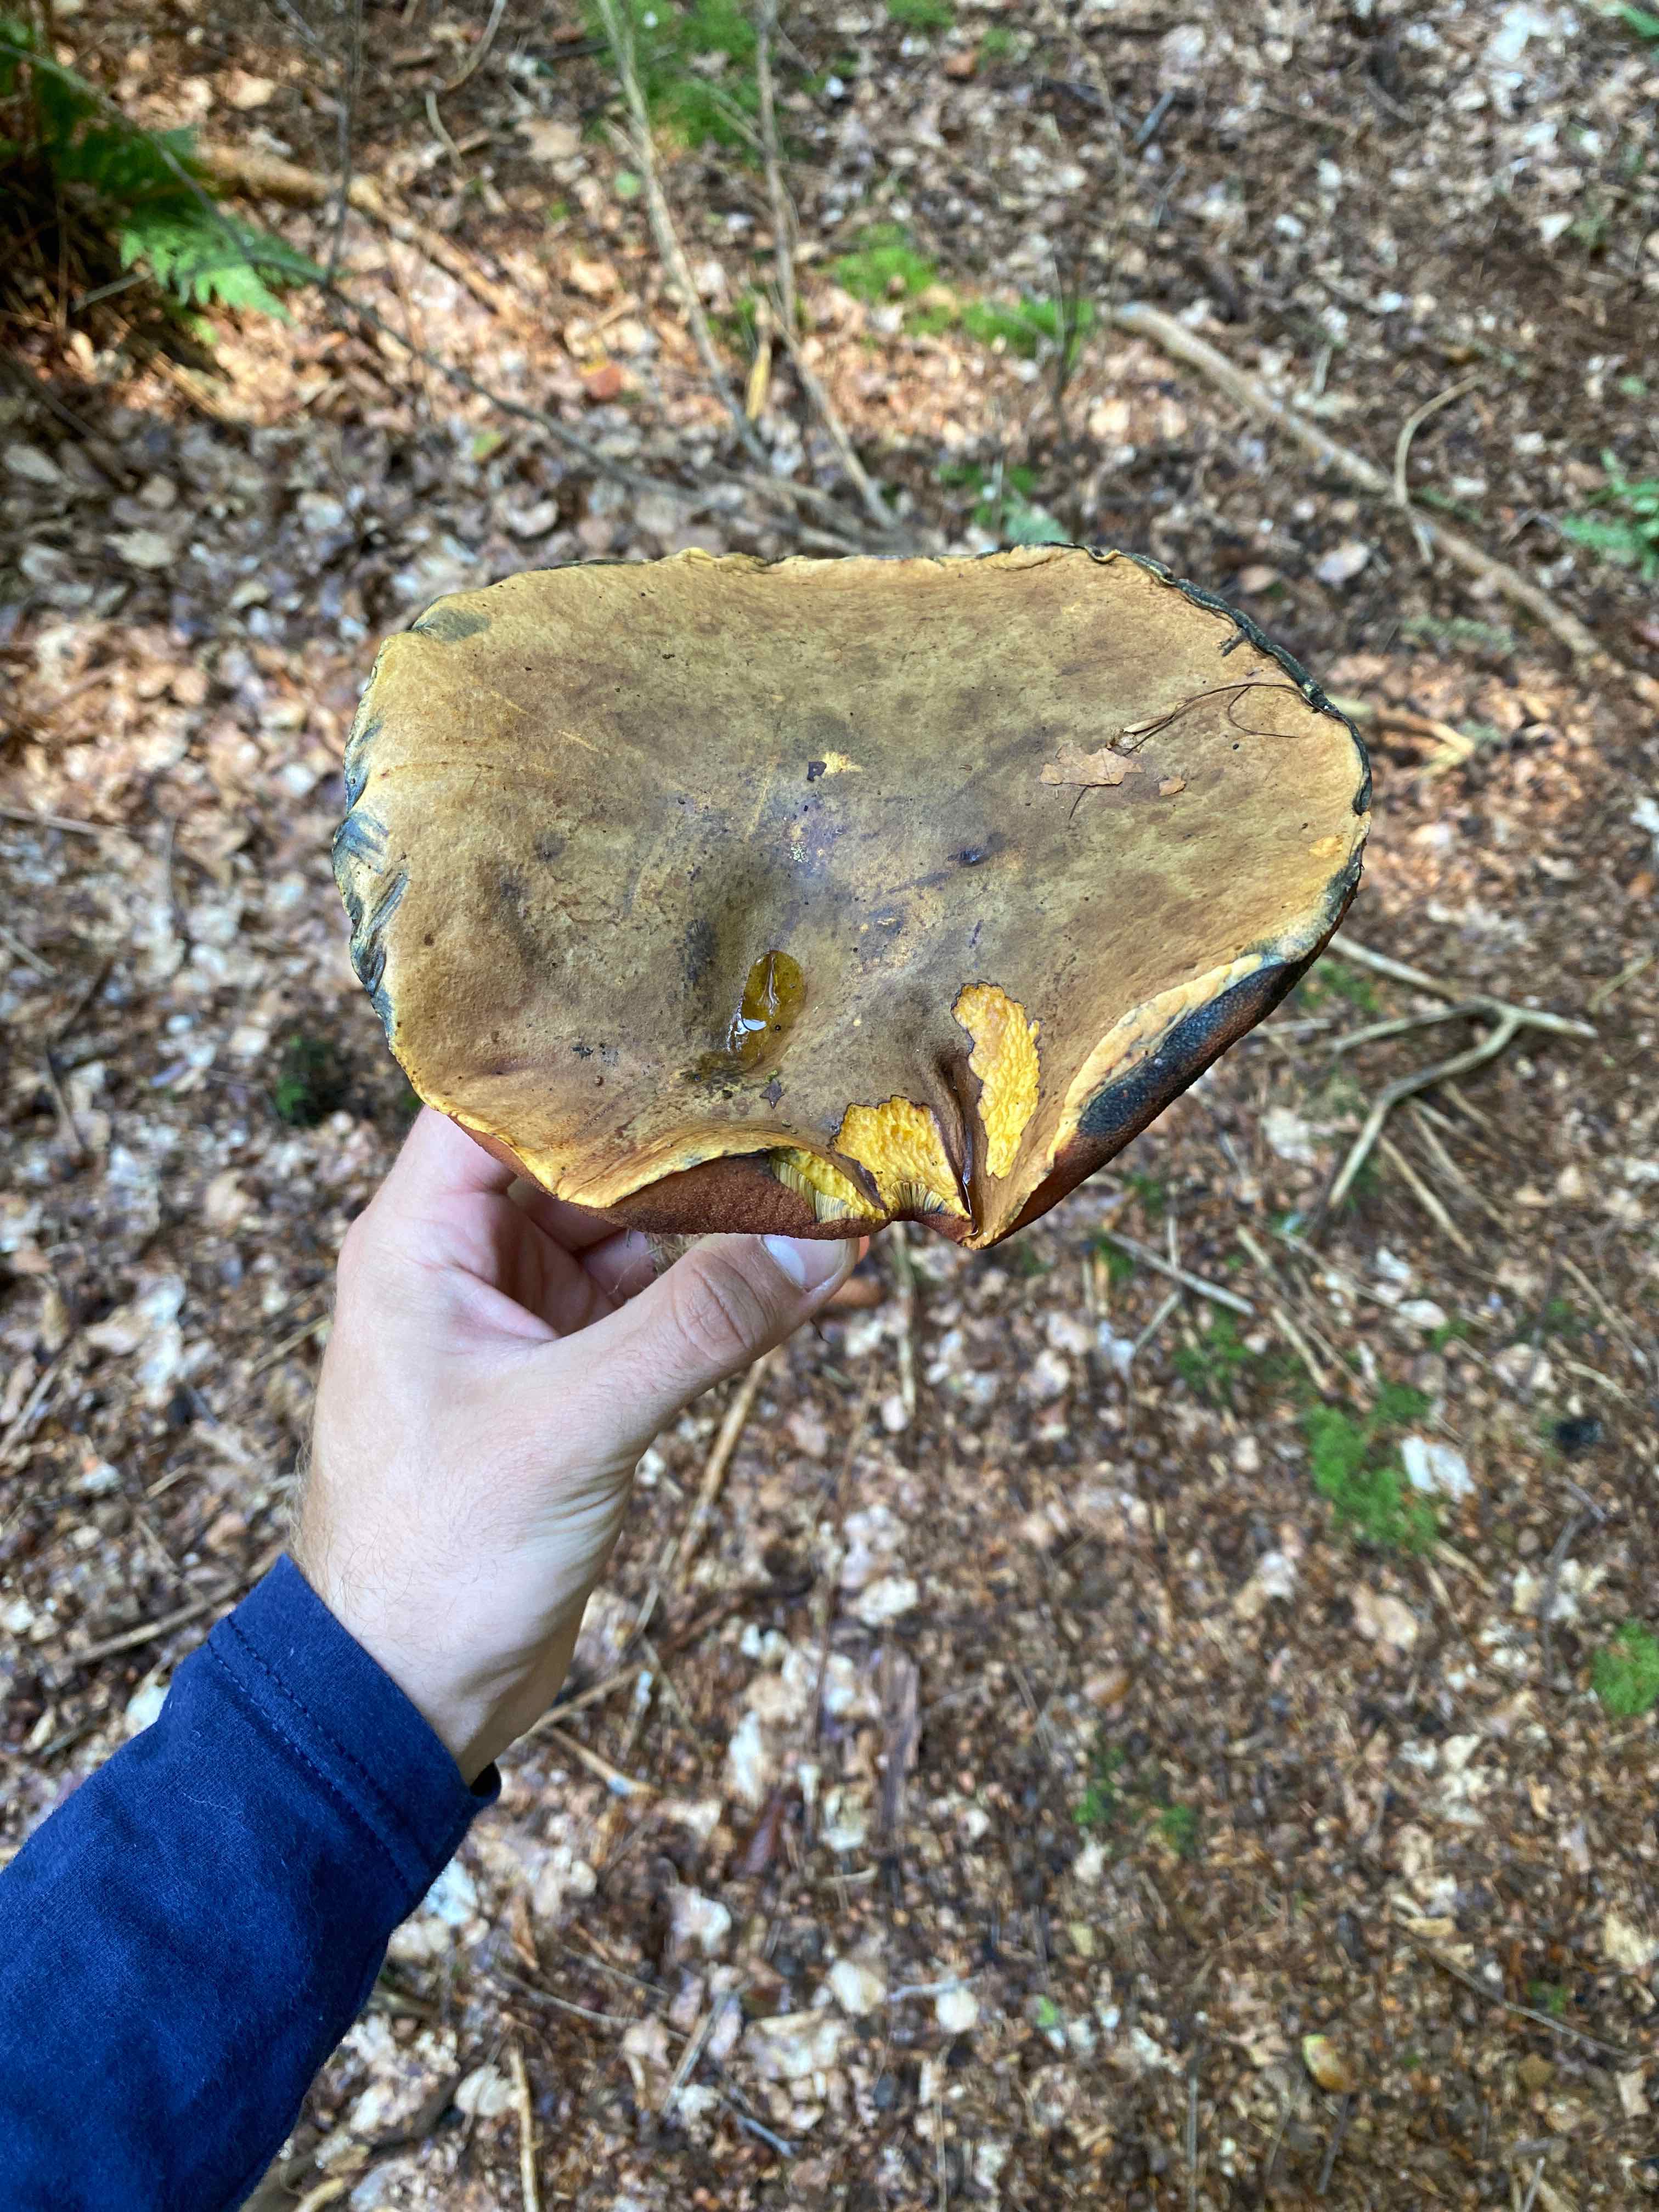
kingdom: Fungi
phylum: Basidiomycota
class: Agaricomycetes
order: Boletales
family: Boletaceae
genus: Neoboletus
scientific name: Neoboletus erythropus
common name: punktstokket indigorørhat
